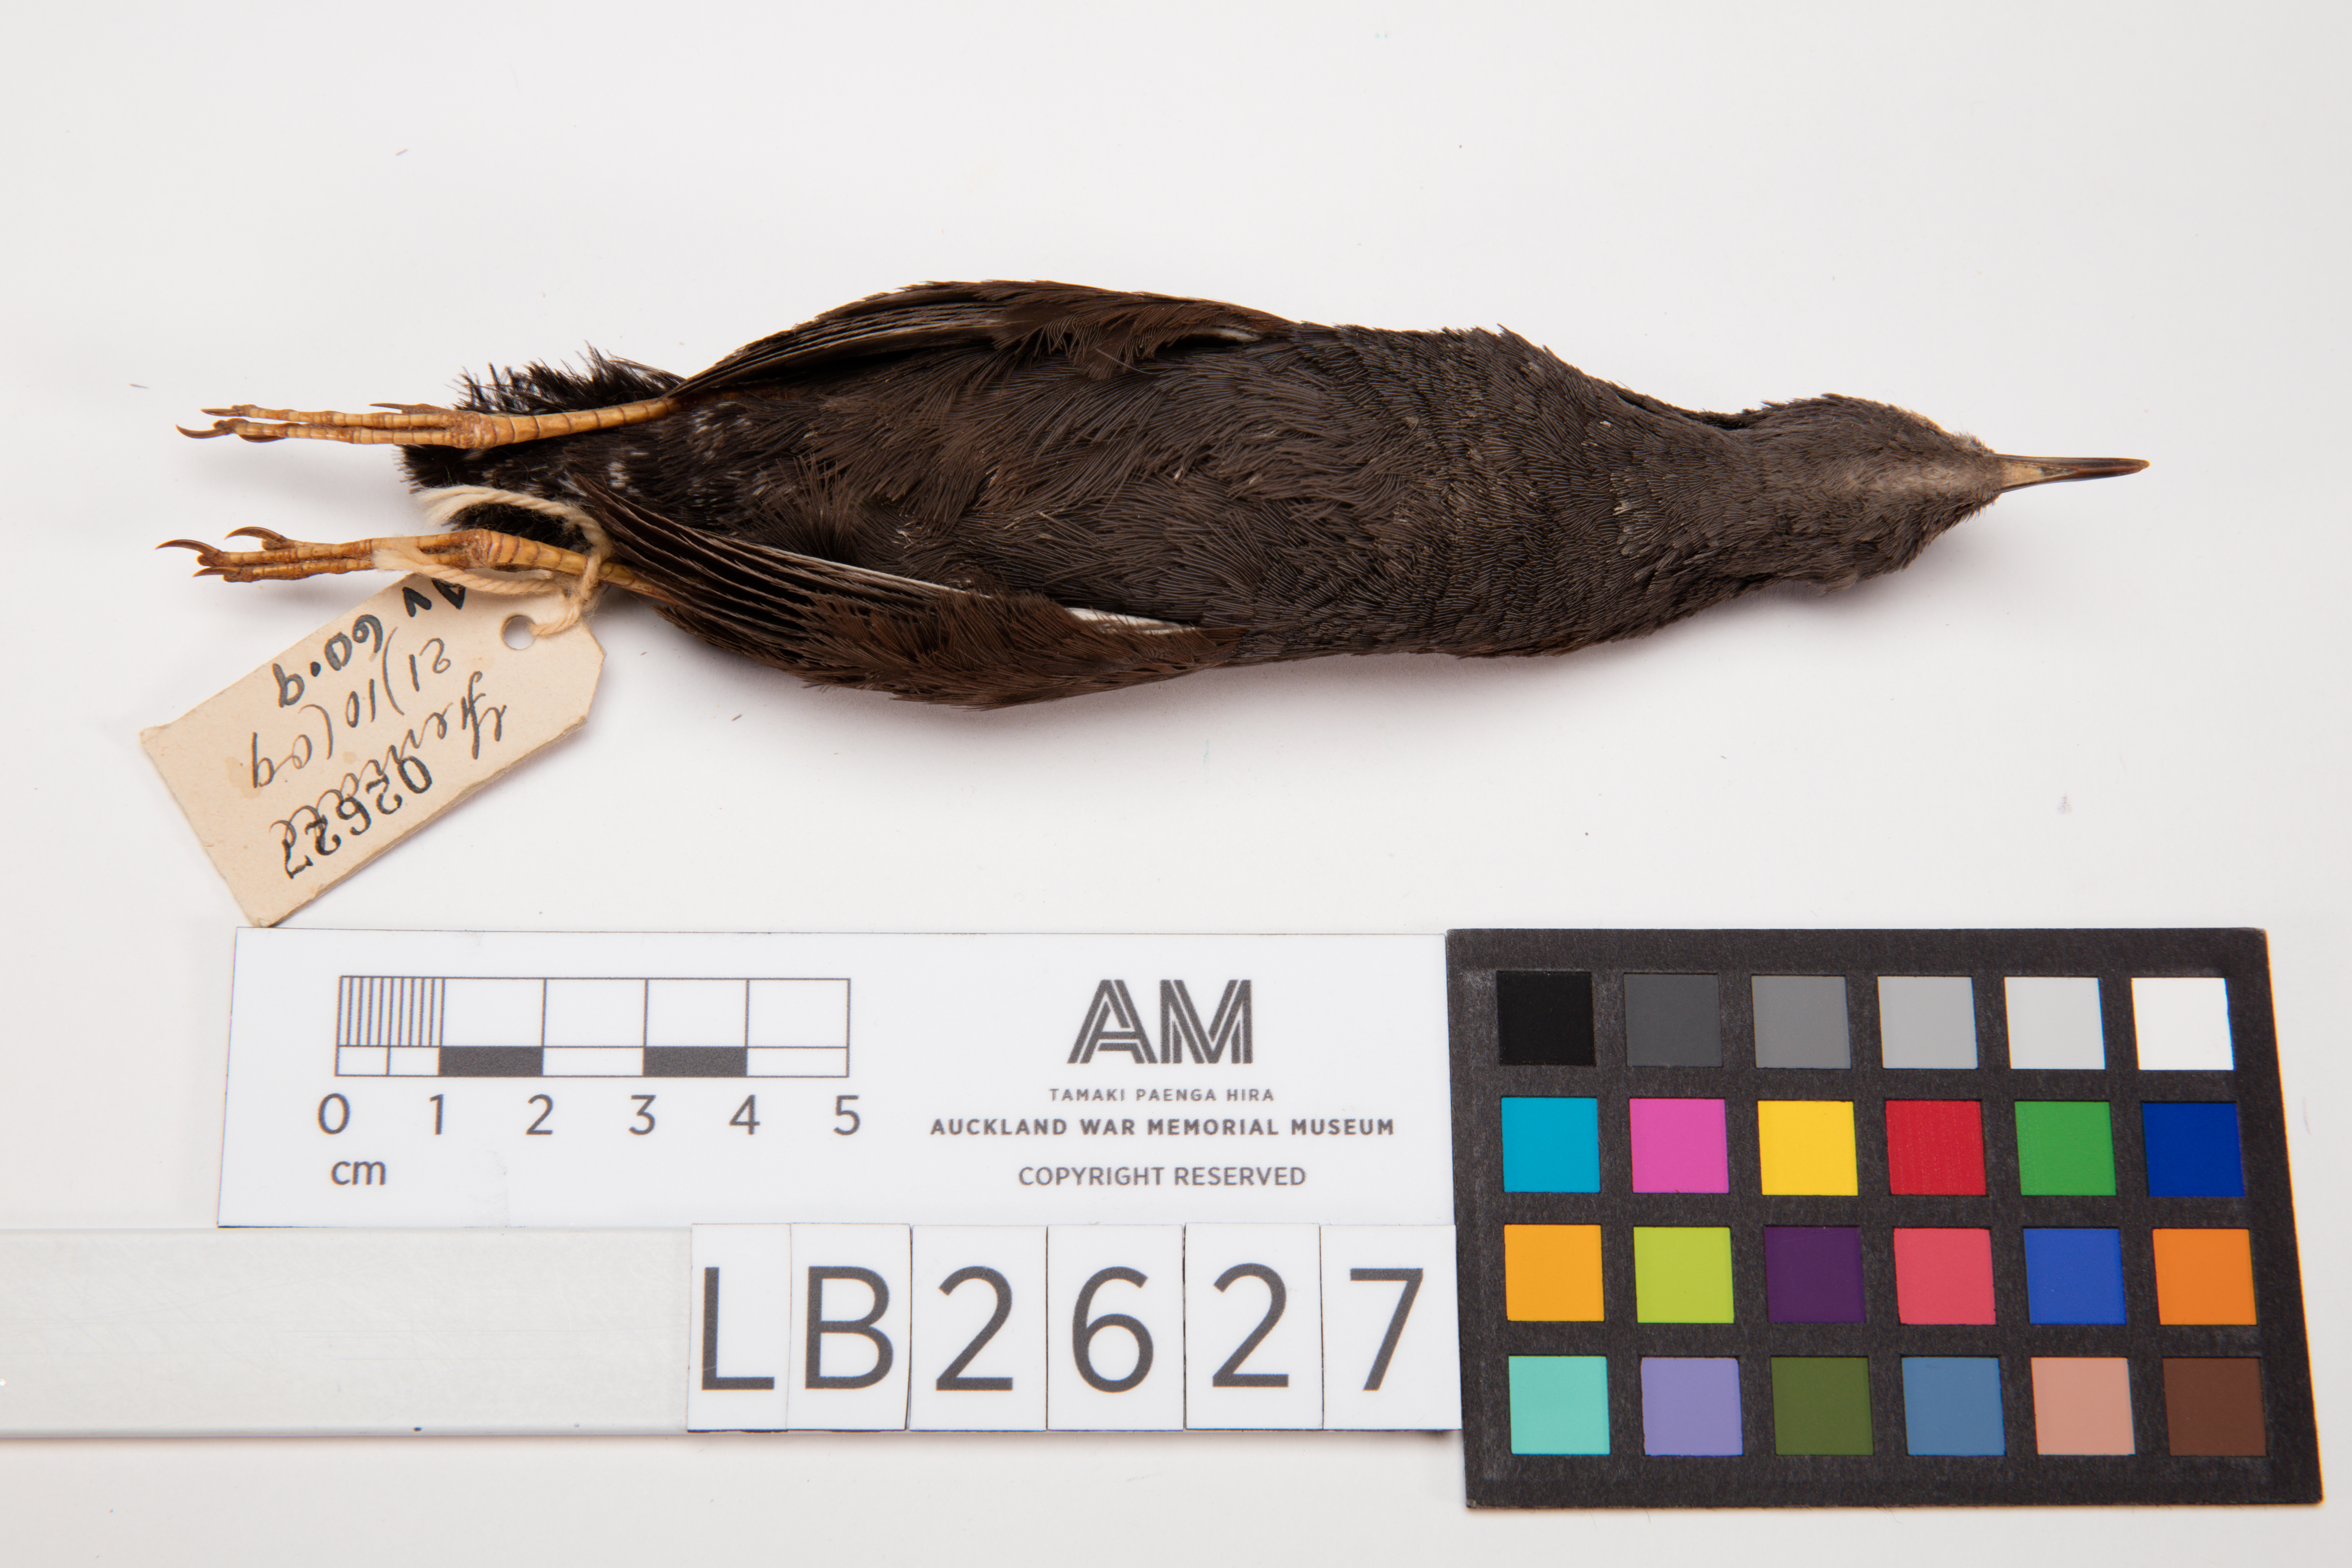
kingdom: Animalia
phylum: Chordata
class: Aves
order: Gruiformes
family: Rallidae
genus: Porzana
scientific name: Porzana tabuensis
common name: Spotless crake
